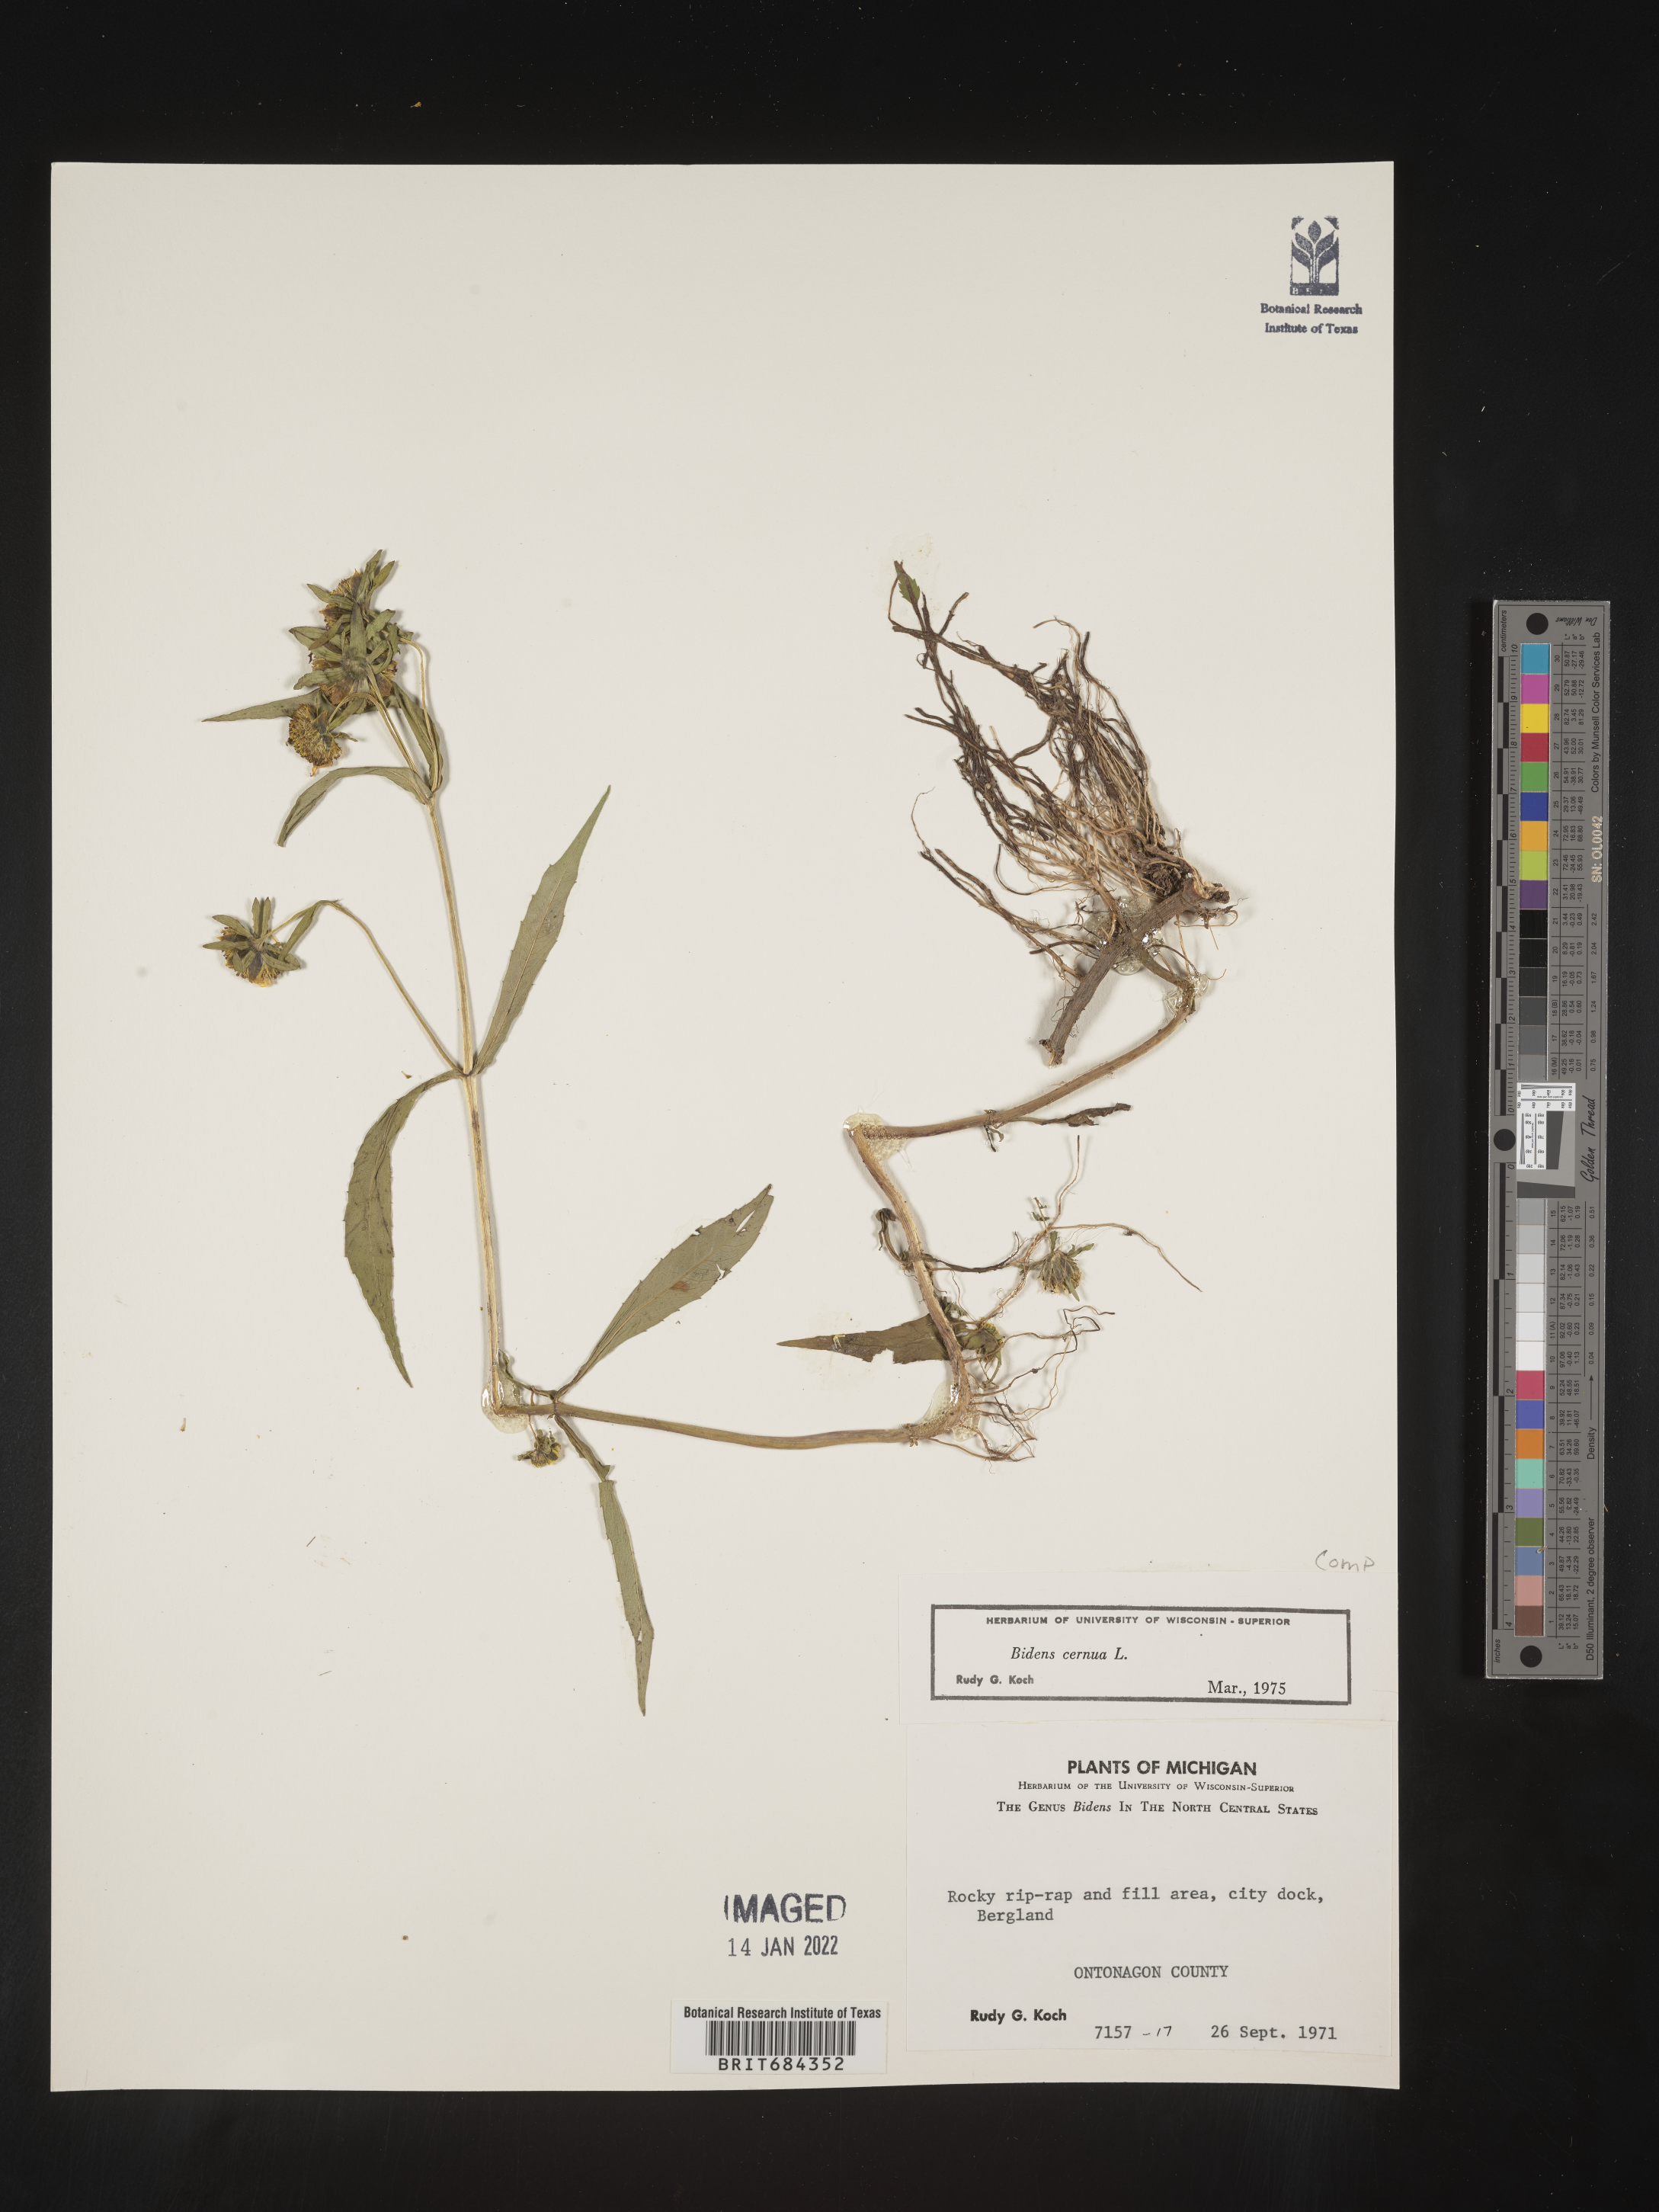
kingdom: Plantae
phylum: Tracheophyta
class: Magnoliopsida
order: Asterales
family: Asteraceae
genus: Bidens
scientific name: Bidens cernua
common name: Nodding bur-marigold
